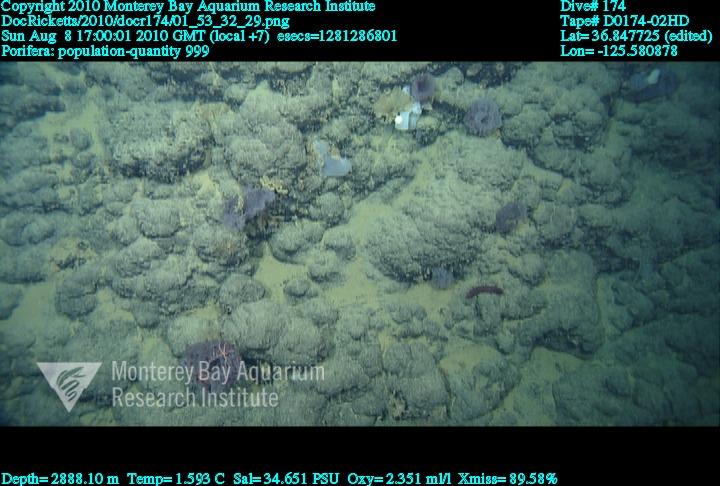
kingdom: Animalia
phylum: Porifera
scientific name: Porifera
